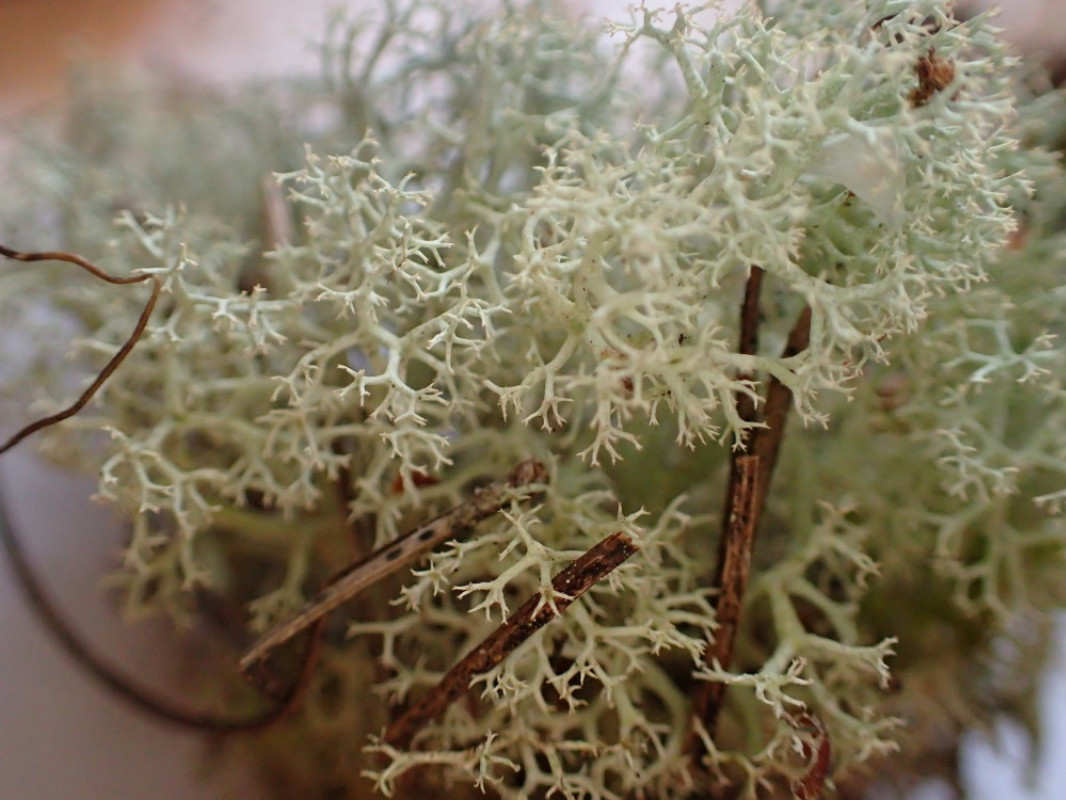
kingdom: Fungi
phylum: Ascomycota
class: Lecanoromycetes
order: Lecanorales
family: Cladoniaceae
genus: Cladonia
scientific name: Cladonia portentosa
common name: hede-rensdyrlav
